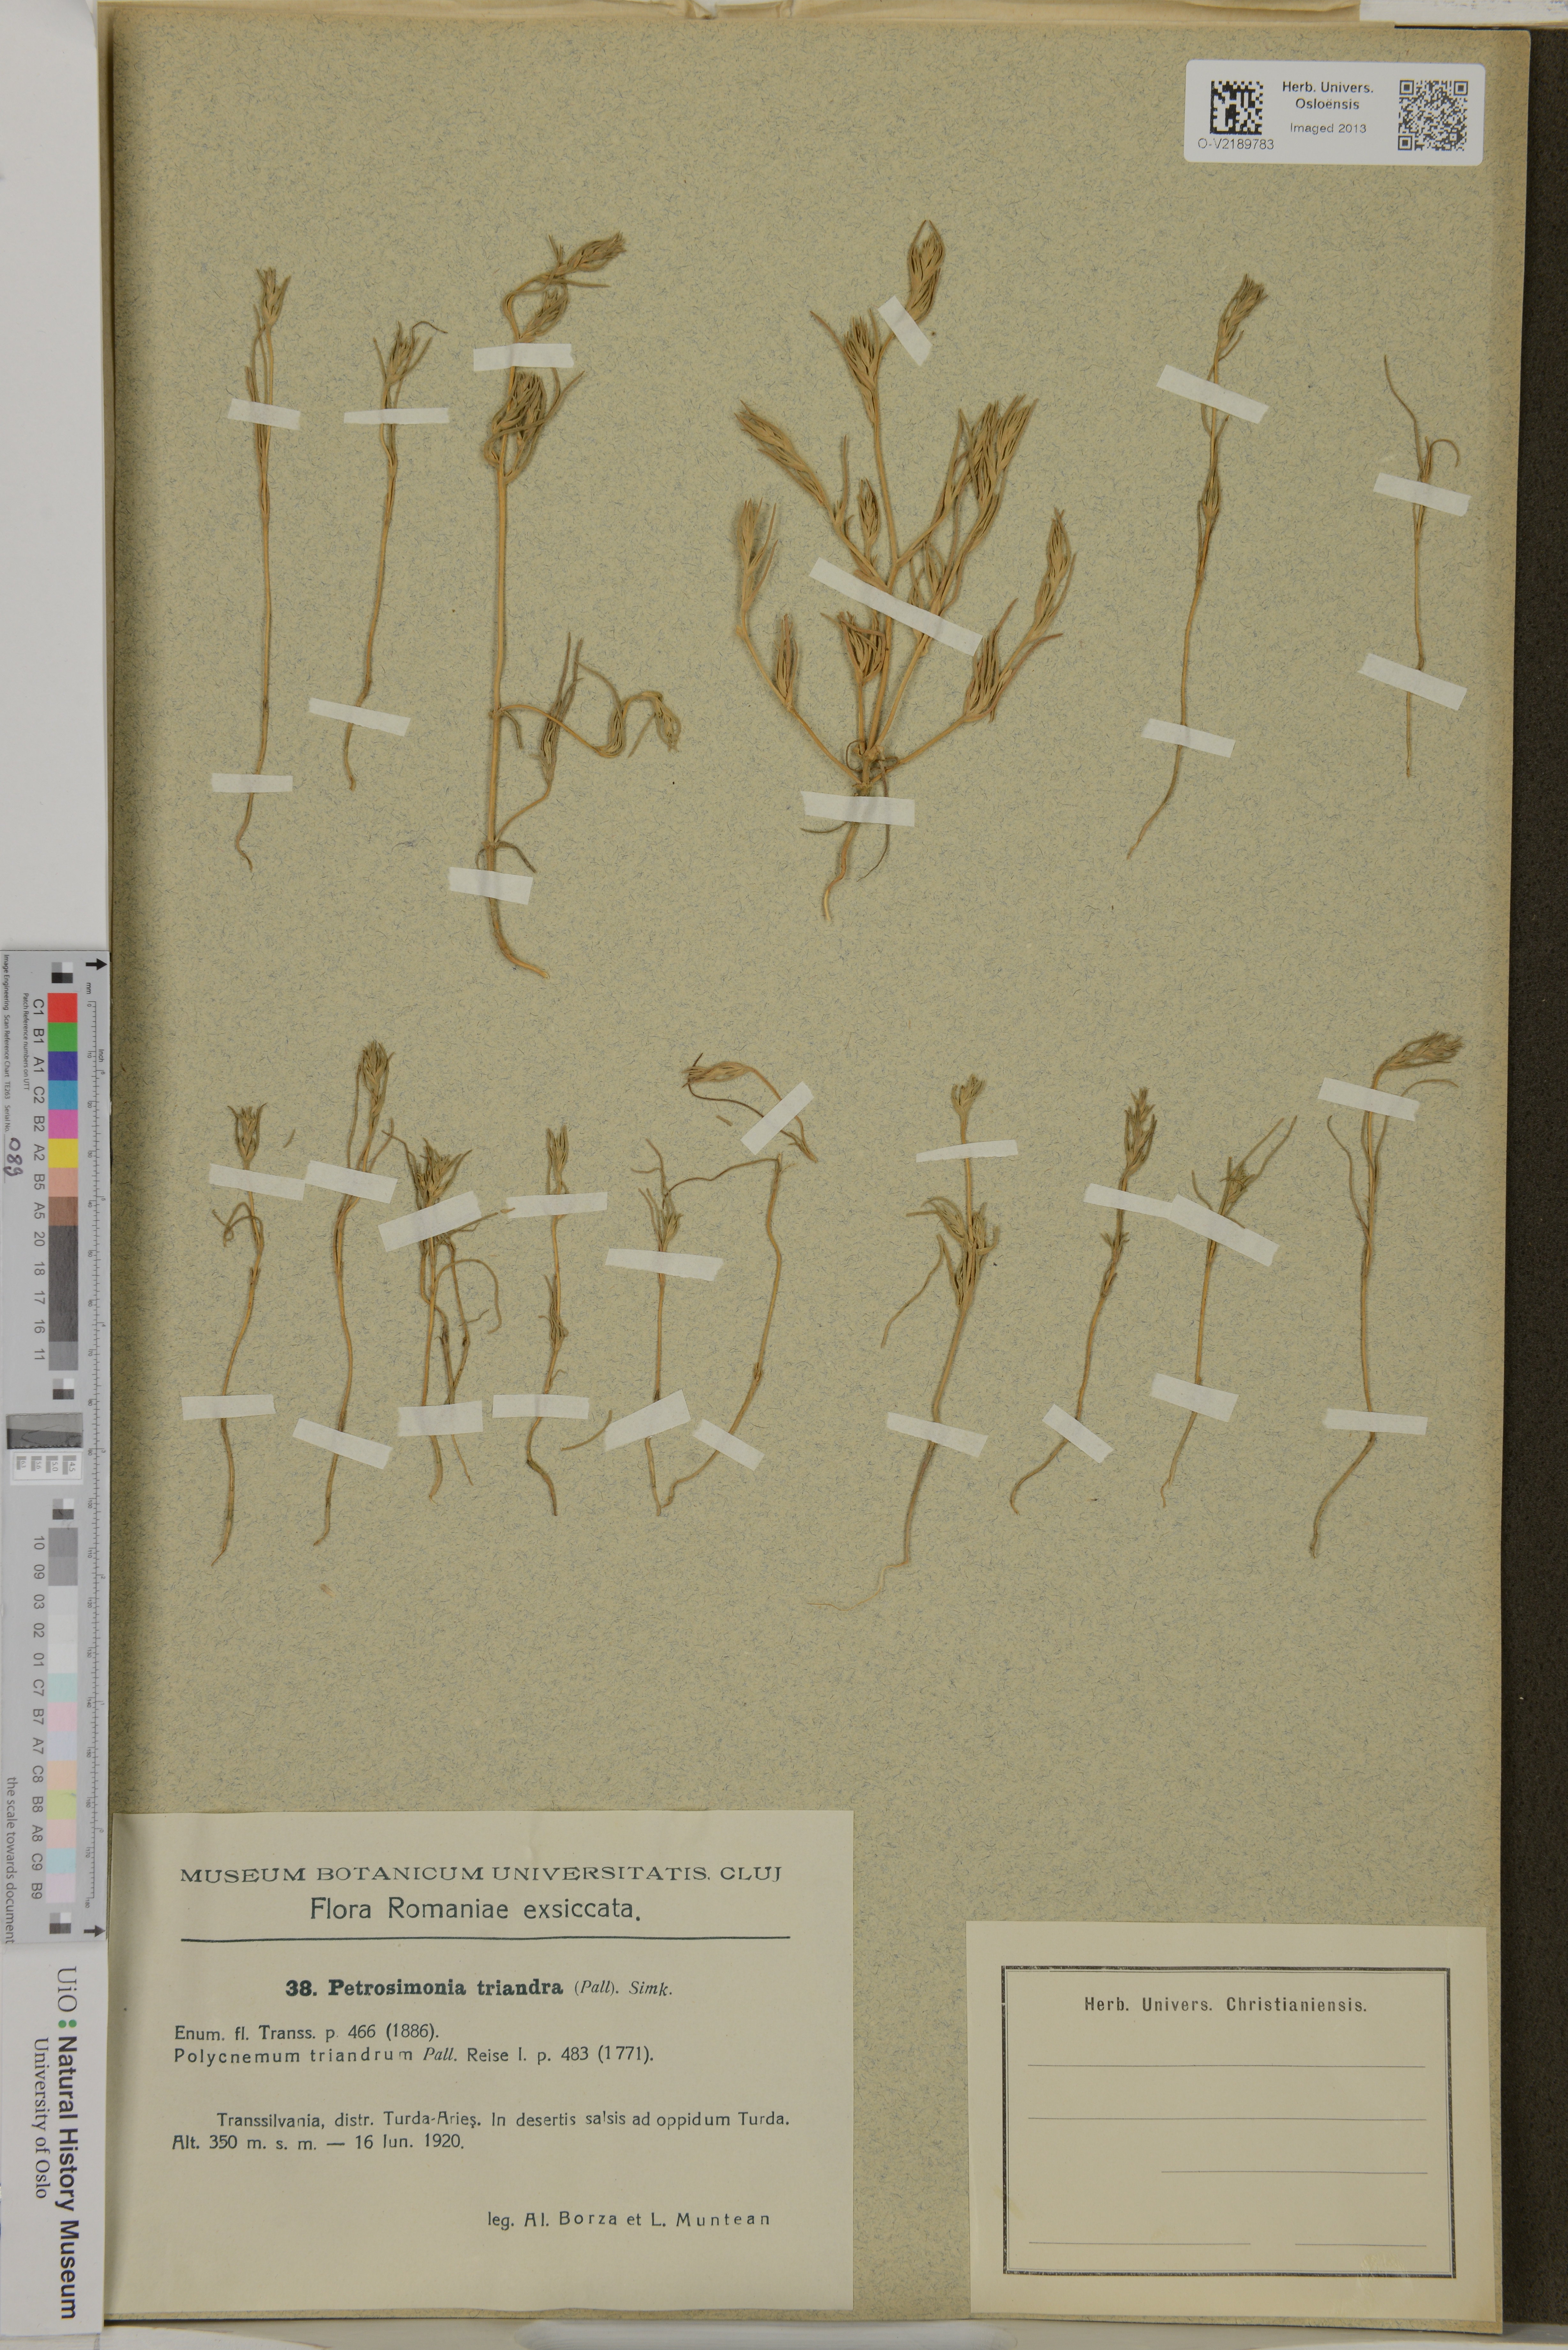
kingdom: Plantae
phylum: Tracheophyta
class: Magnoliopsida
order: Caryophyllales
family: Amaranthaceae
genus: Petrosimonia
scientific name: Petrosimonia triandra
